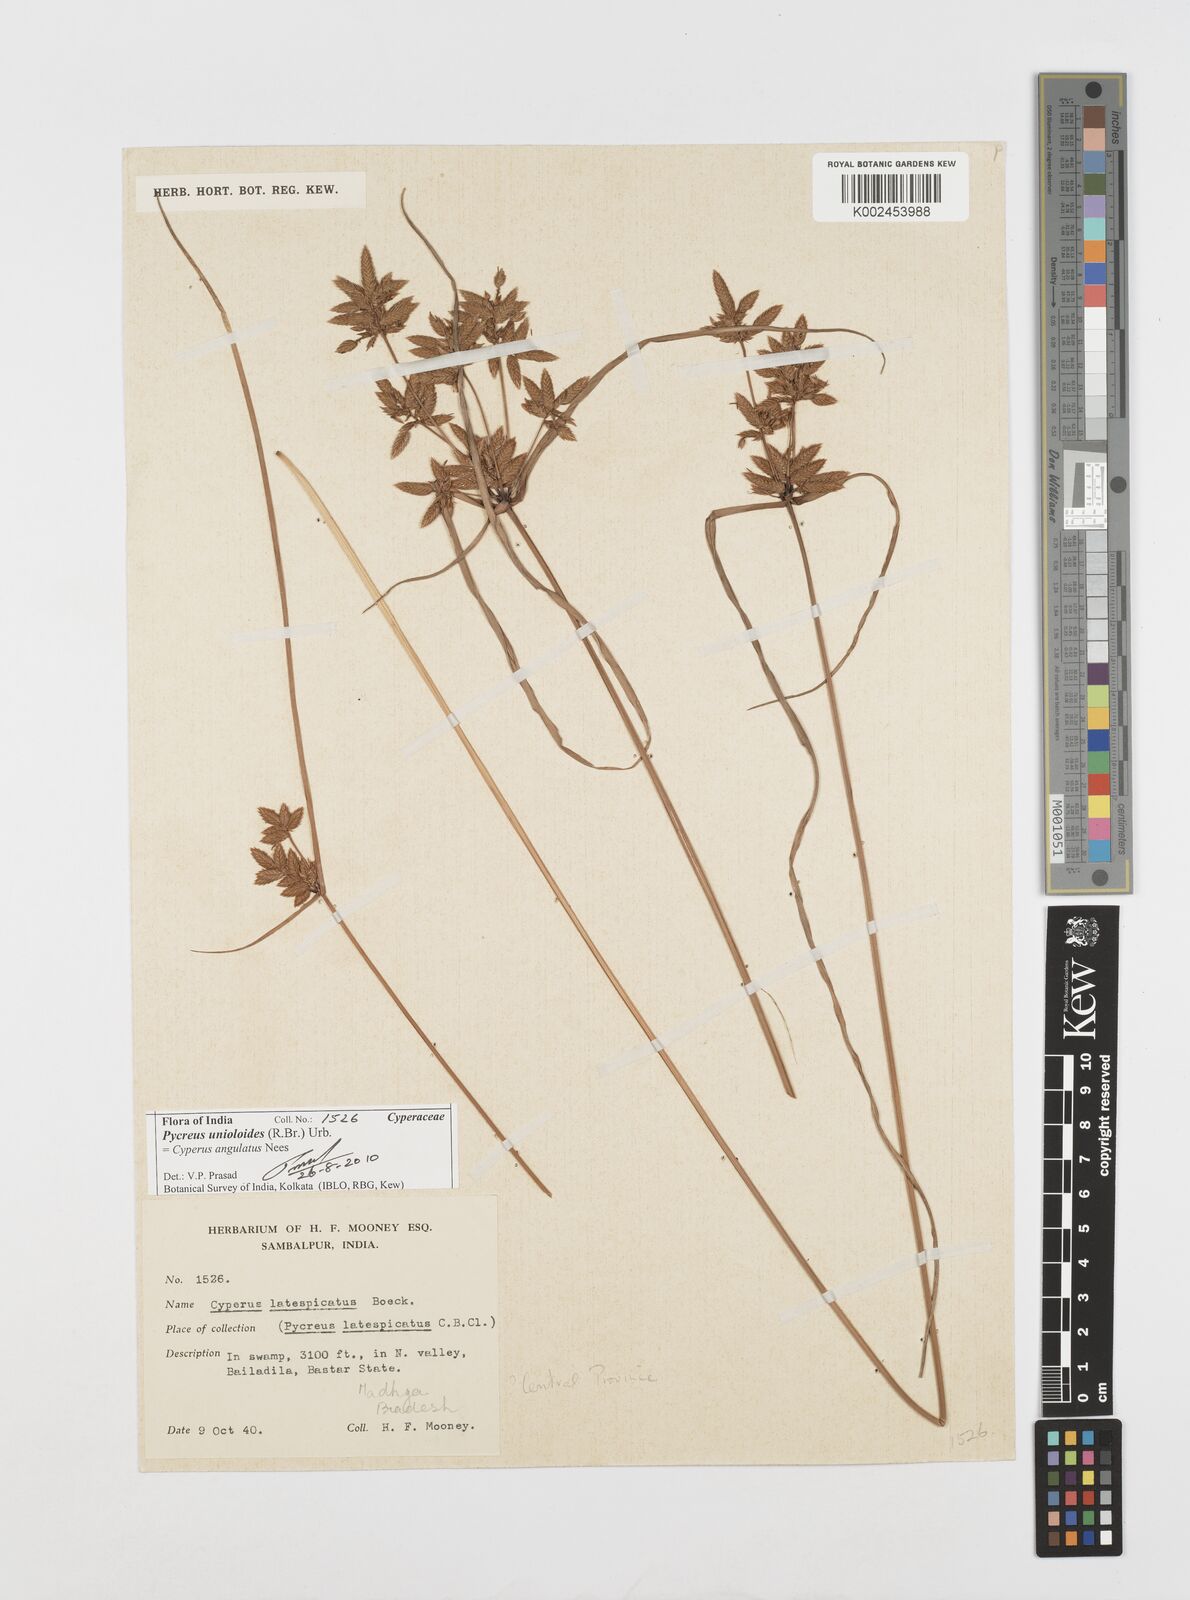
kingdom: Plantae
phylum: Tracheophyta
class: Liliopsida
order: Poales
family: Cyperaceae
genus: Cyperus
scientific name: Cyperus unioloides
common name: Uniola flatsedge
